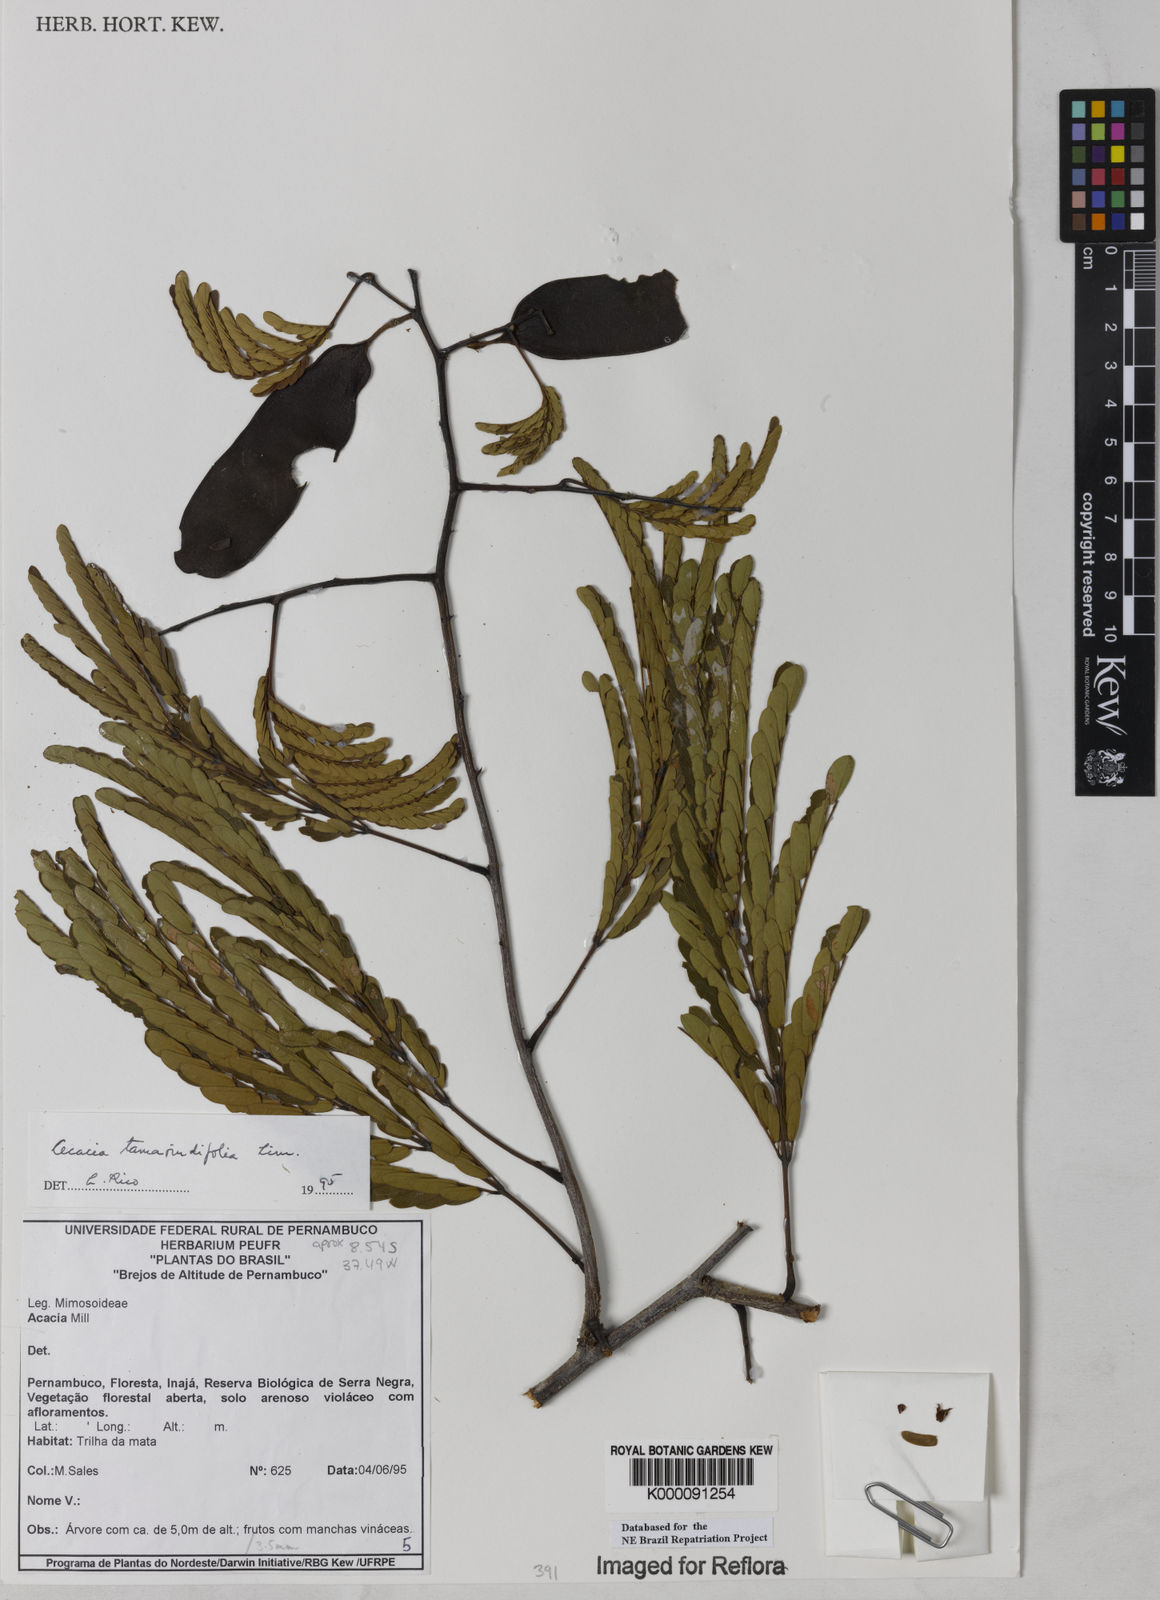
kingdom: Plantae
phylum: Tracheophyta
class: Magnoliopsida
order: Fabales
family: Fabaceae
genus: Senegalia
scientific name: Senegalia tamarindifolia
